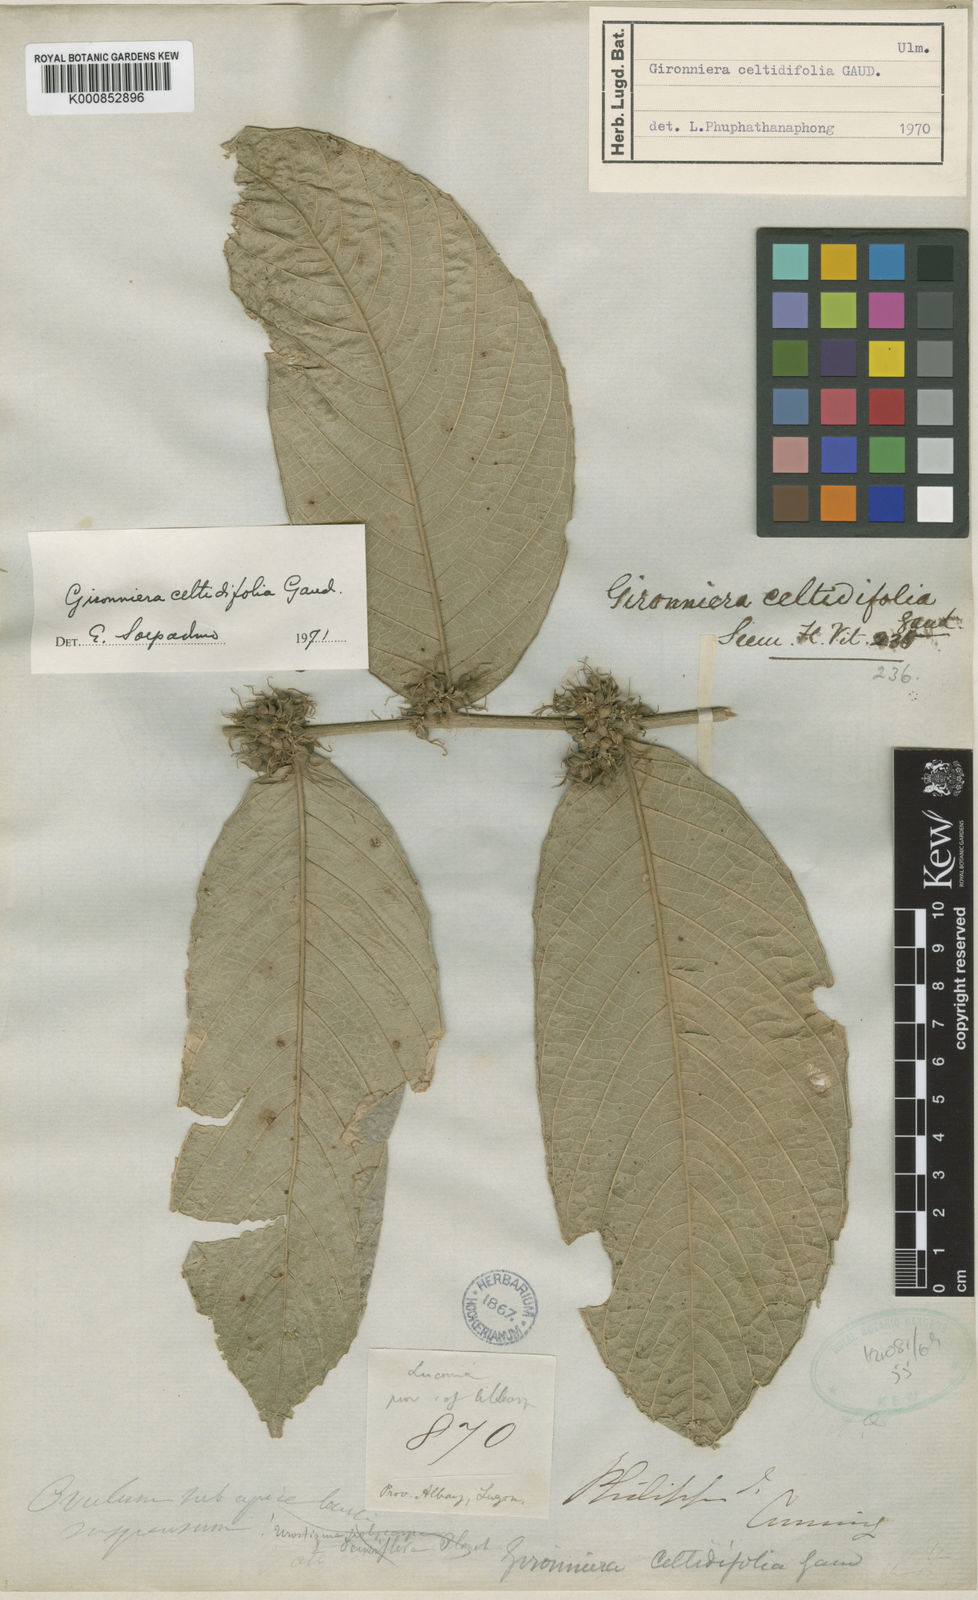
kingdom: Plantae
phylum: Tracheophyta
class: Magnoliopsida
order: Rosales
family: Cannabaceae
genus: Gironniera
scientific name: Gironniera celtidifolia
